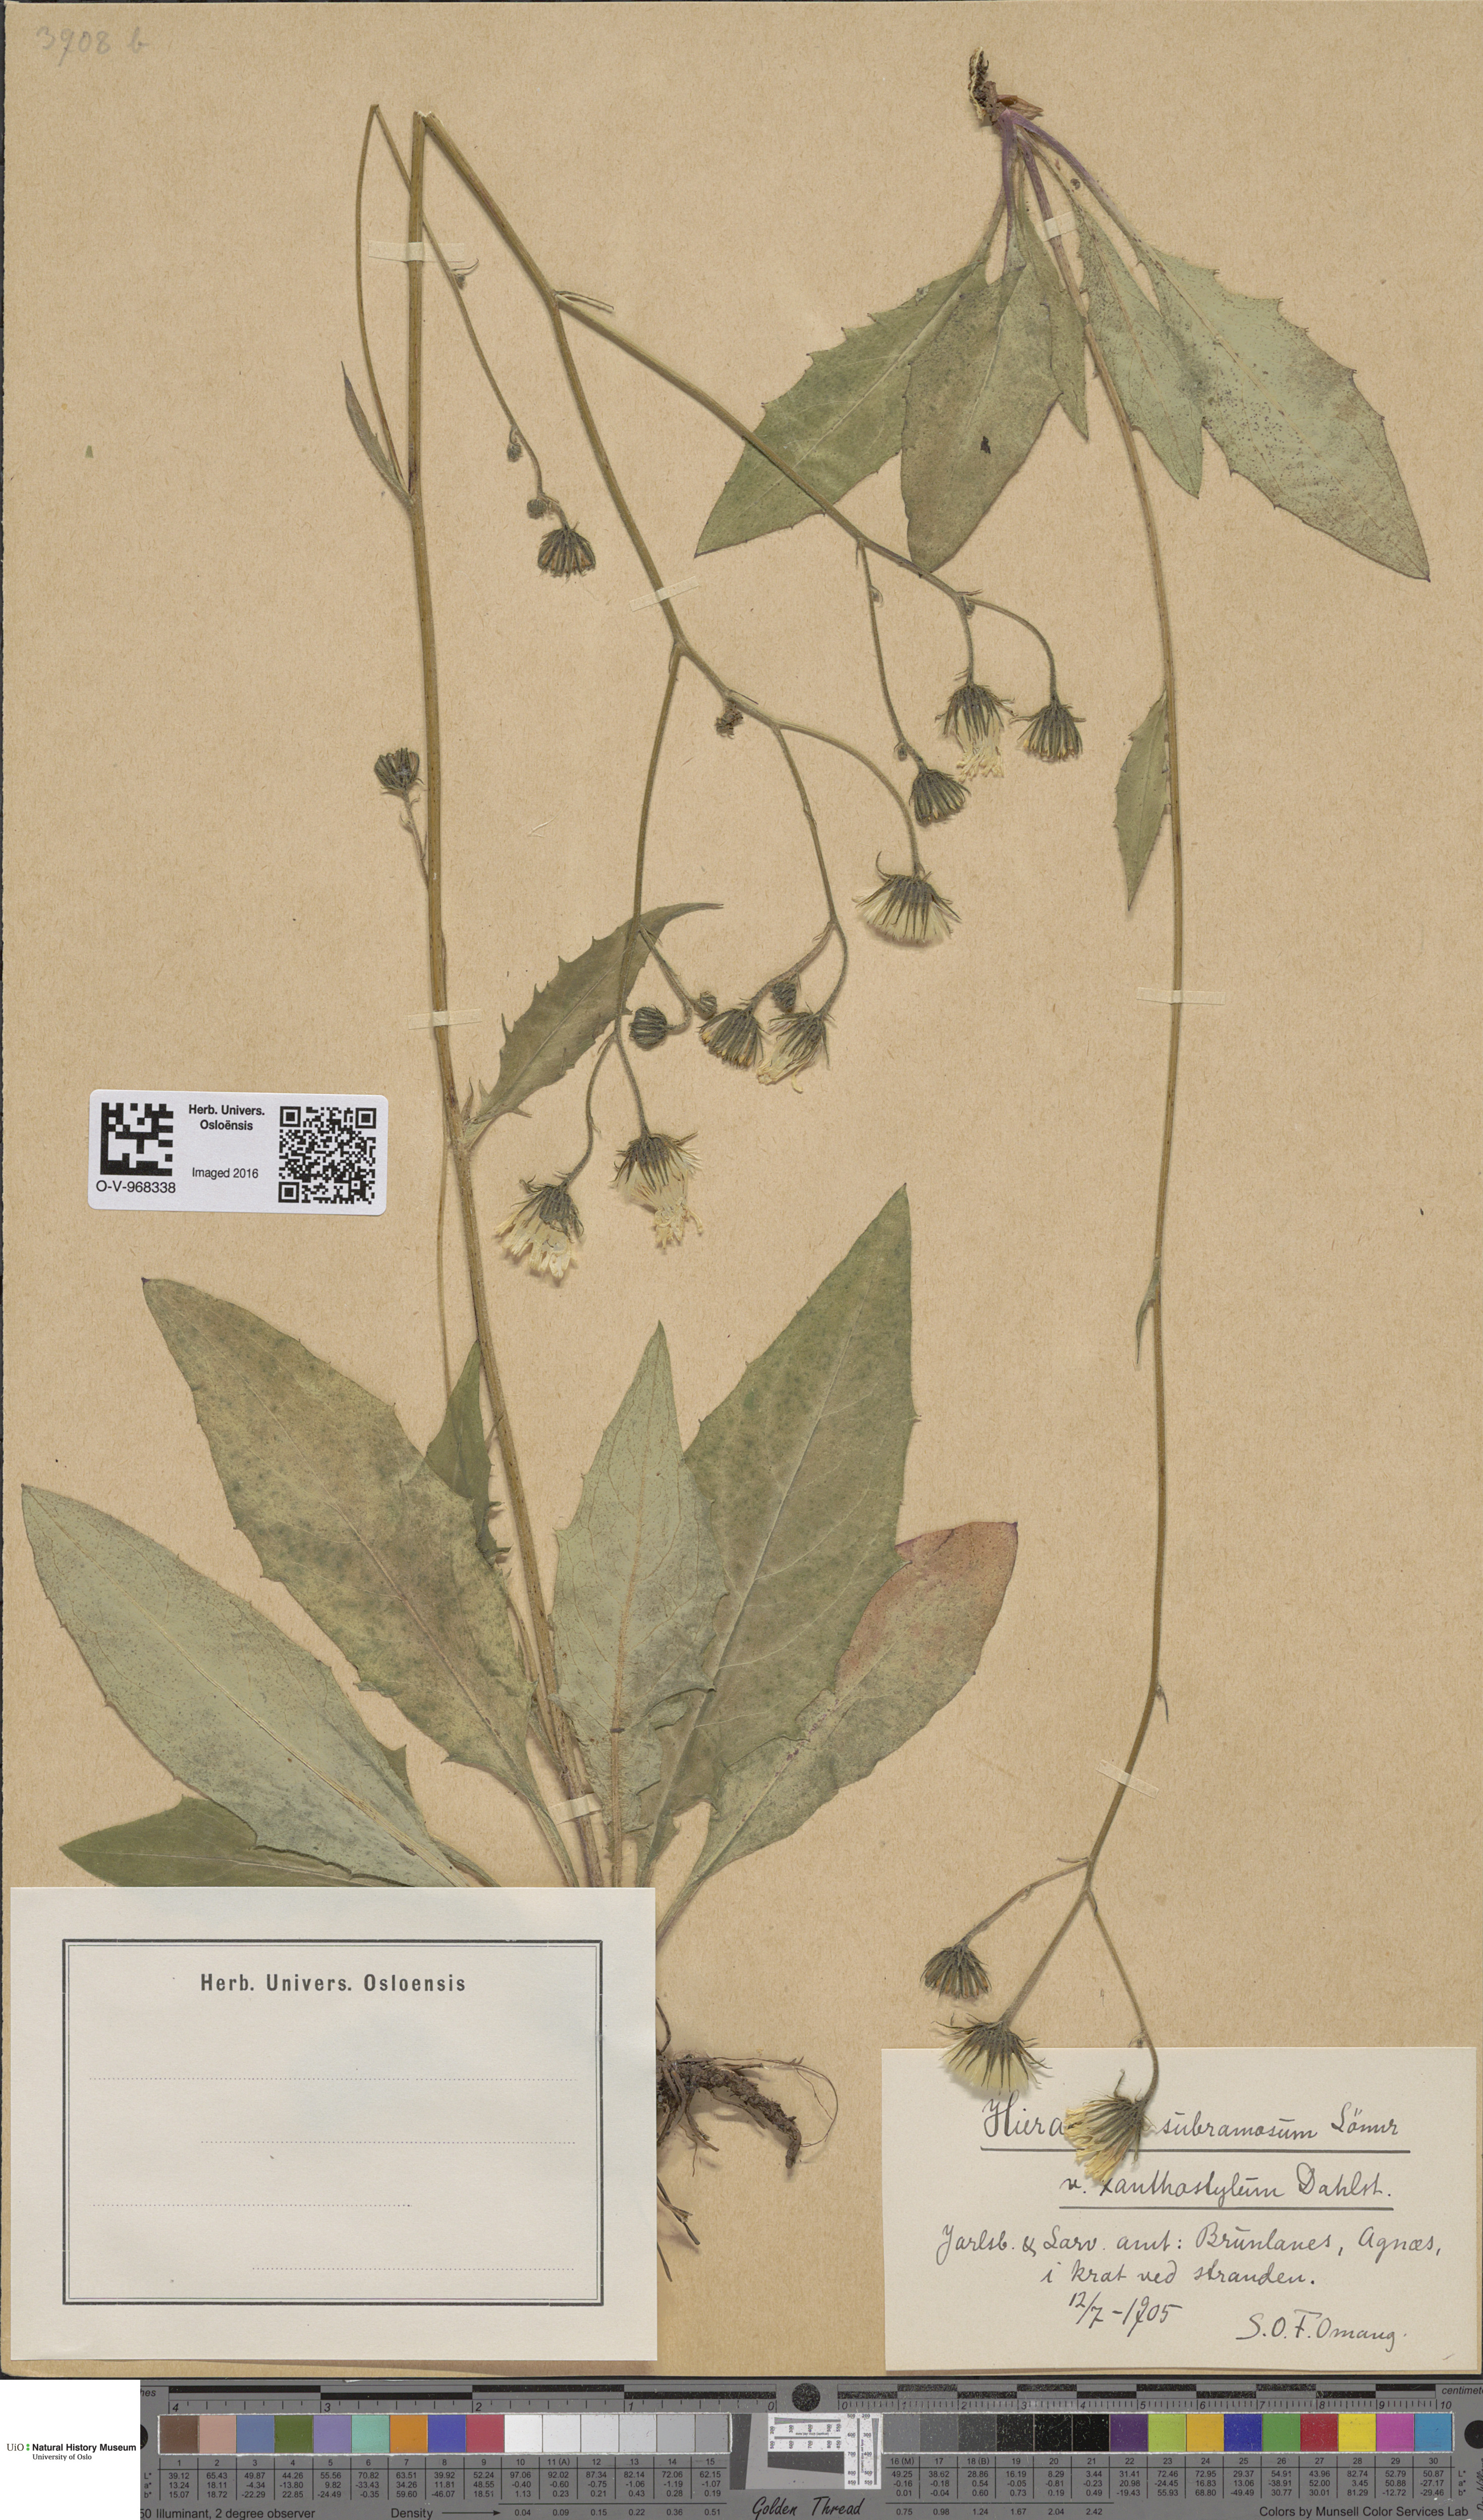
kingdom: Plantae
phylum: Tracheophyta
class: Magnoliopsida
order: Asterales
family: Asteraceae
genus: Hieracium
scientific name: Hieracium subramosum
